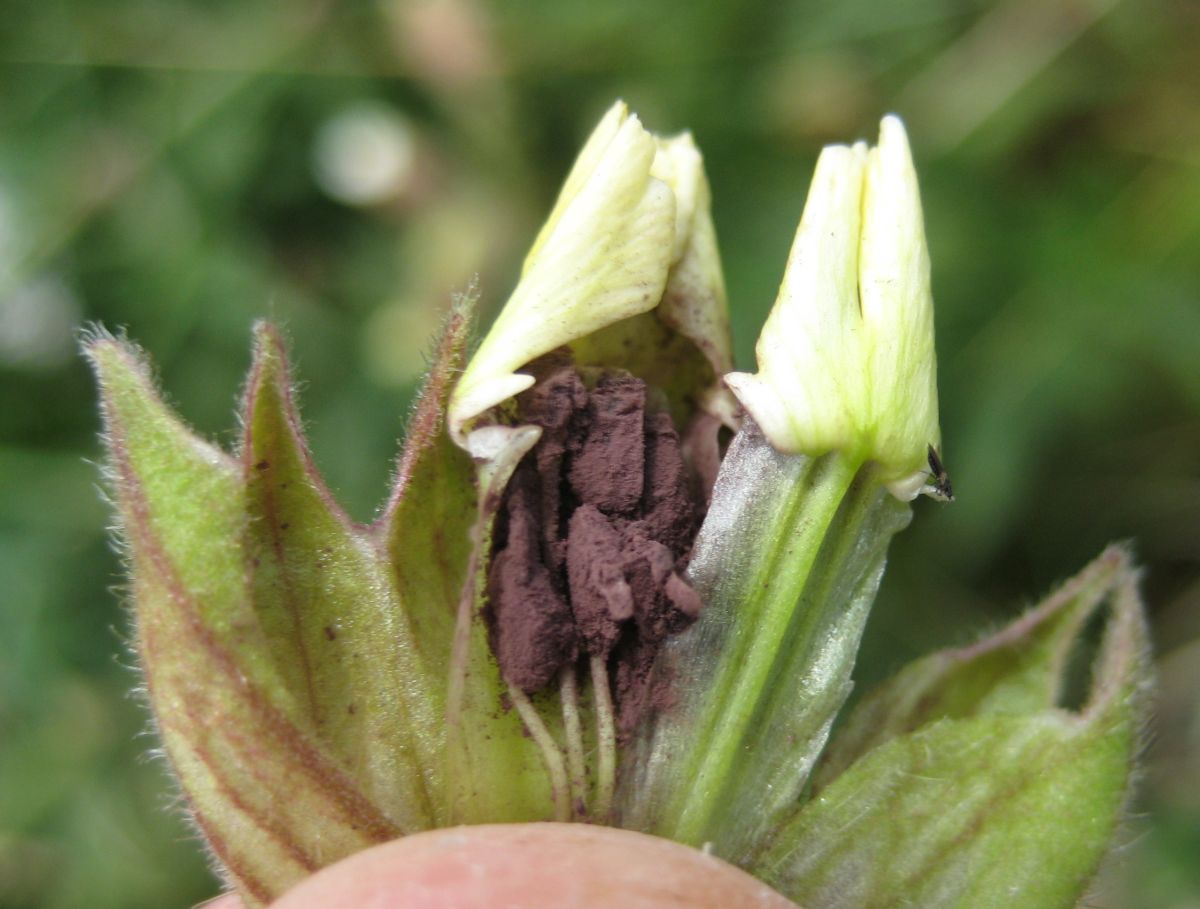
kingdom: Fungi
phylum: Basidiomycota
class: Microbotryomycetes
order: Microbotryales
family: Microbotryaceae
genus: Microbotryum
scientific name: Microbotryum lychnidis-dioicae
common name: Campion anther smut
